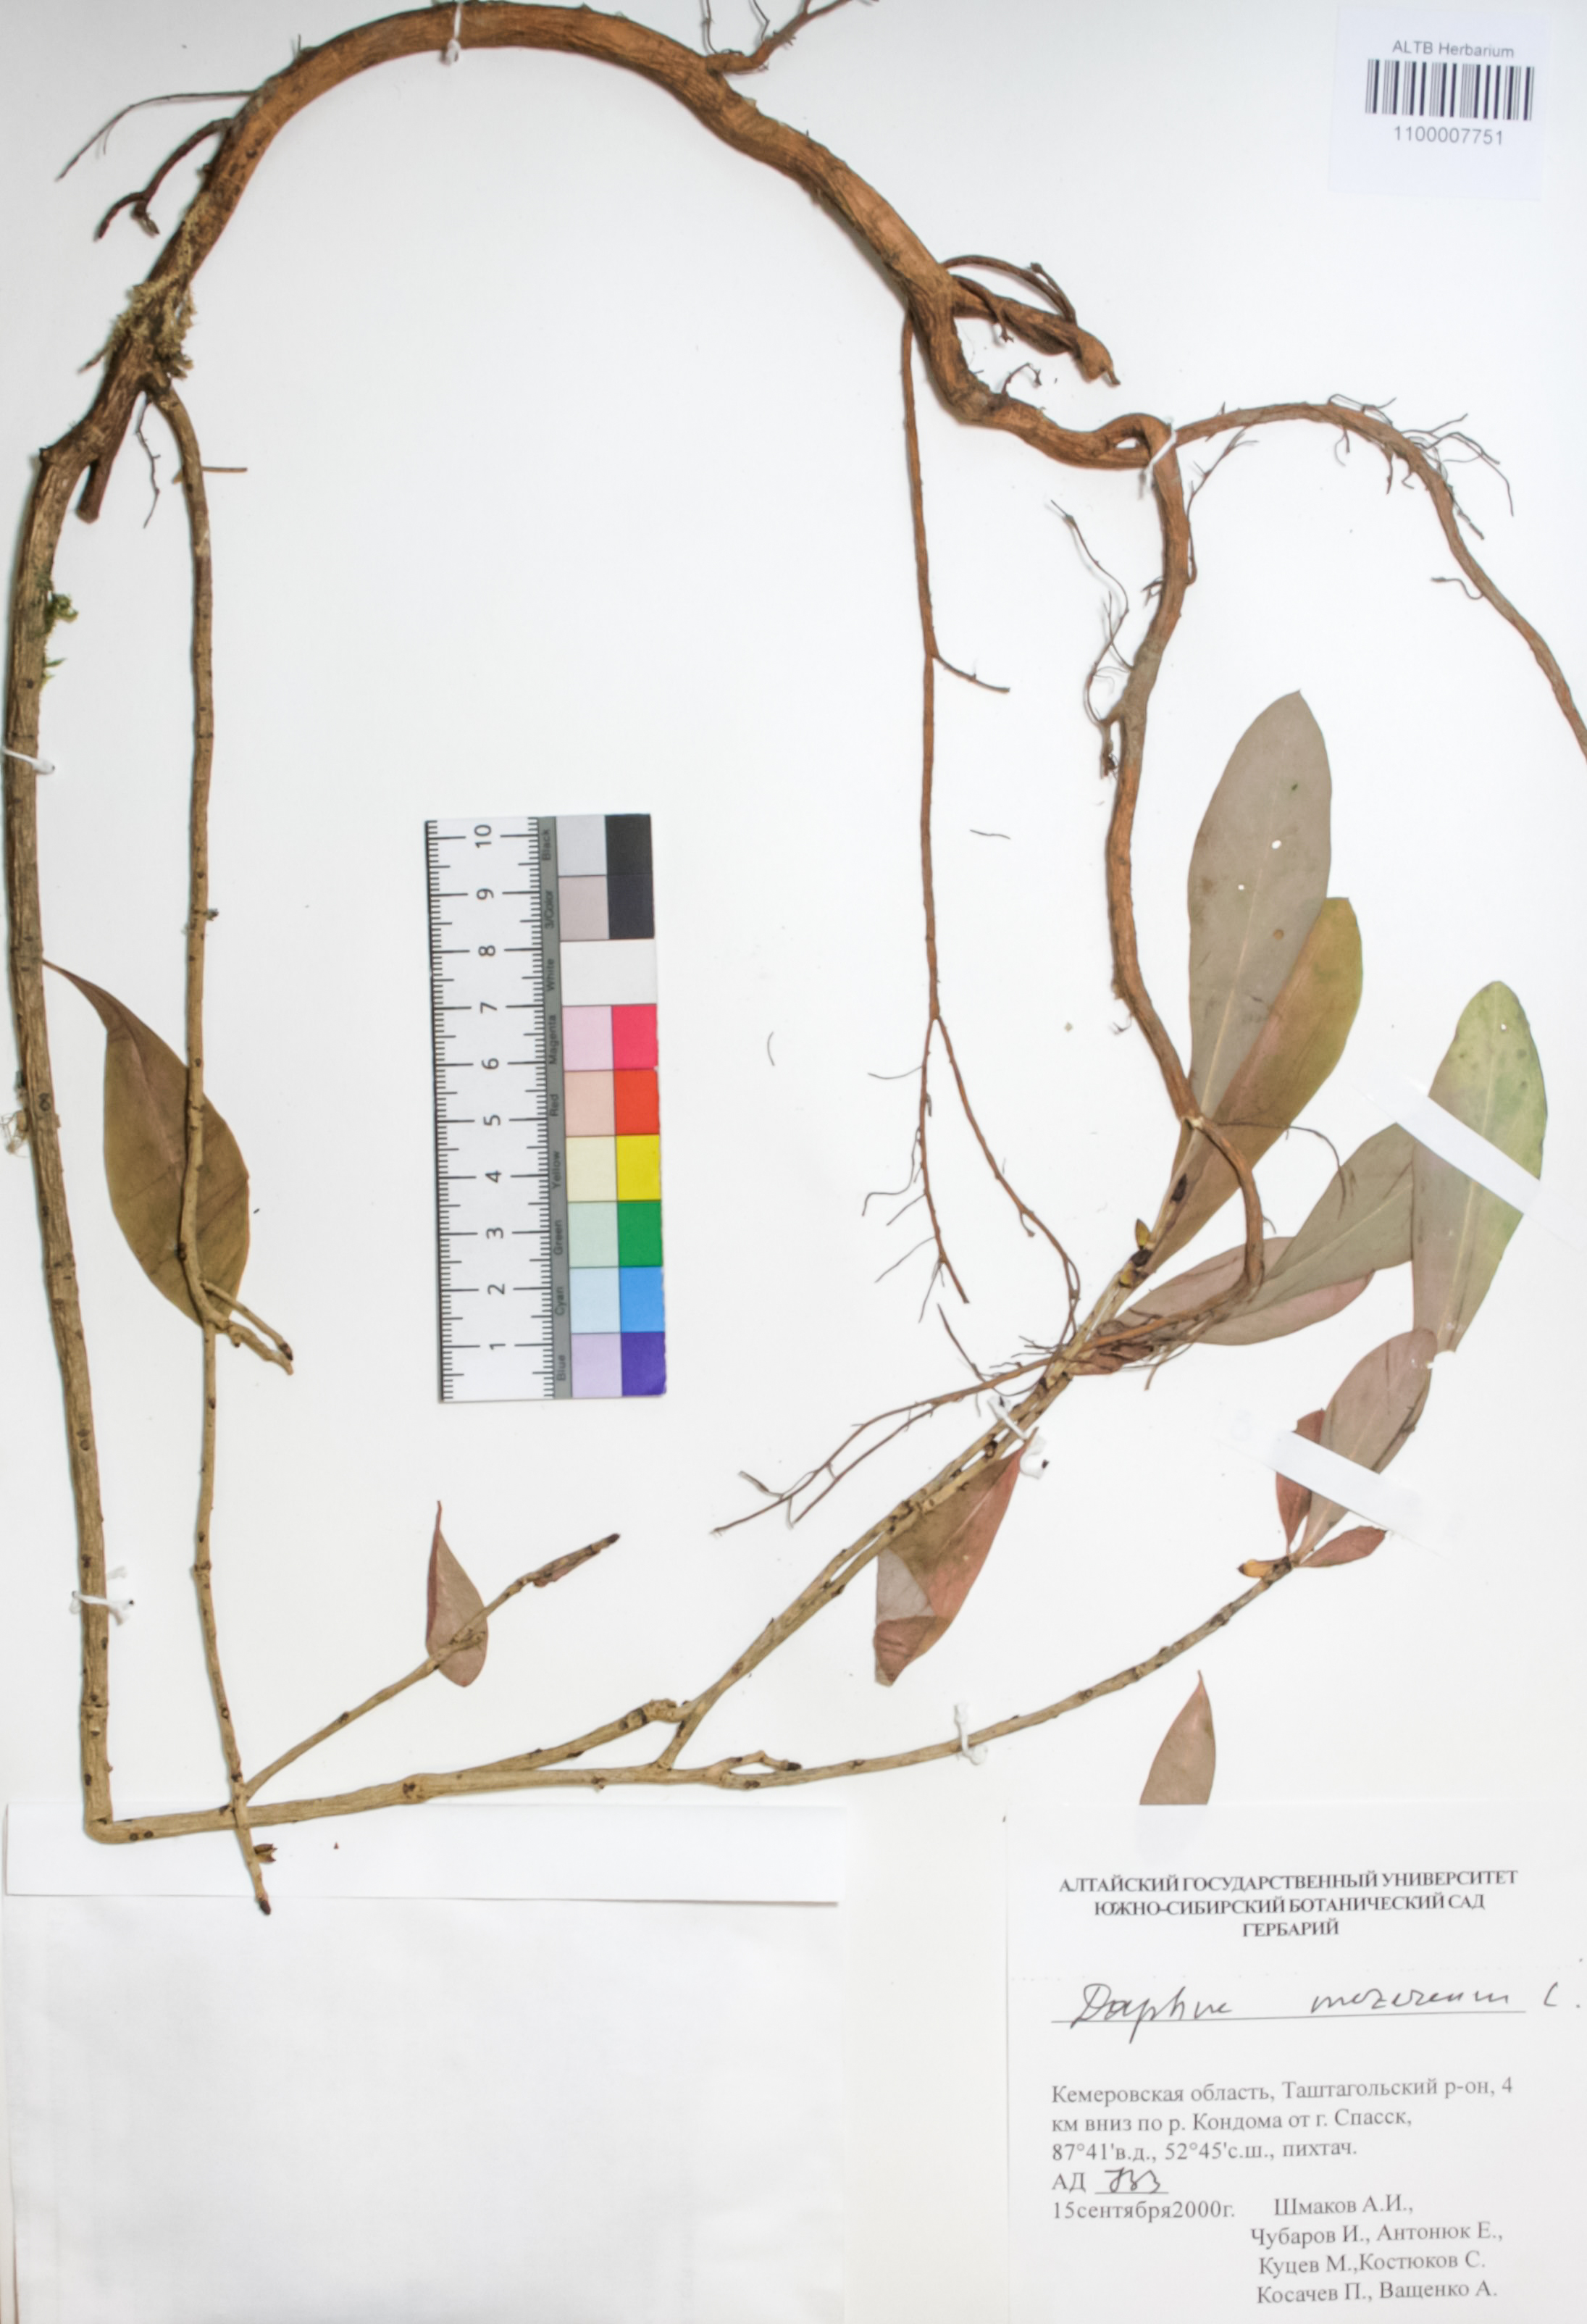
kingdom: Plantae
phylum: Tracheophyta
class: Magnoliopsida
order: Malvales
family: Thymelaeaceae
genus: Daphne
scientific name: Daphne mezereum
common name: Mezereon
